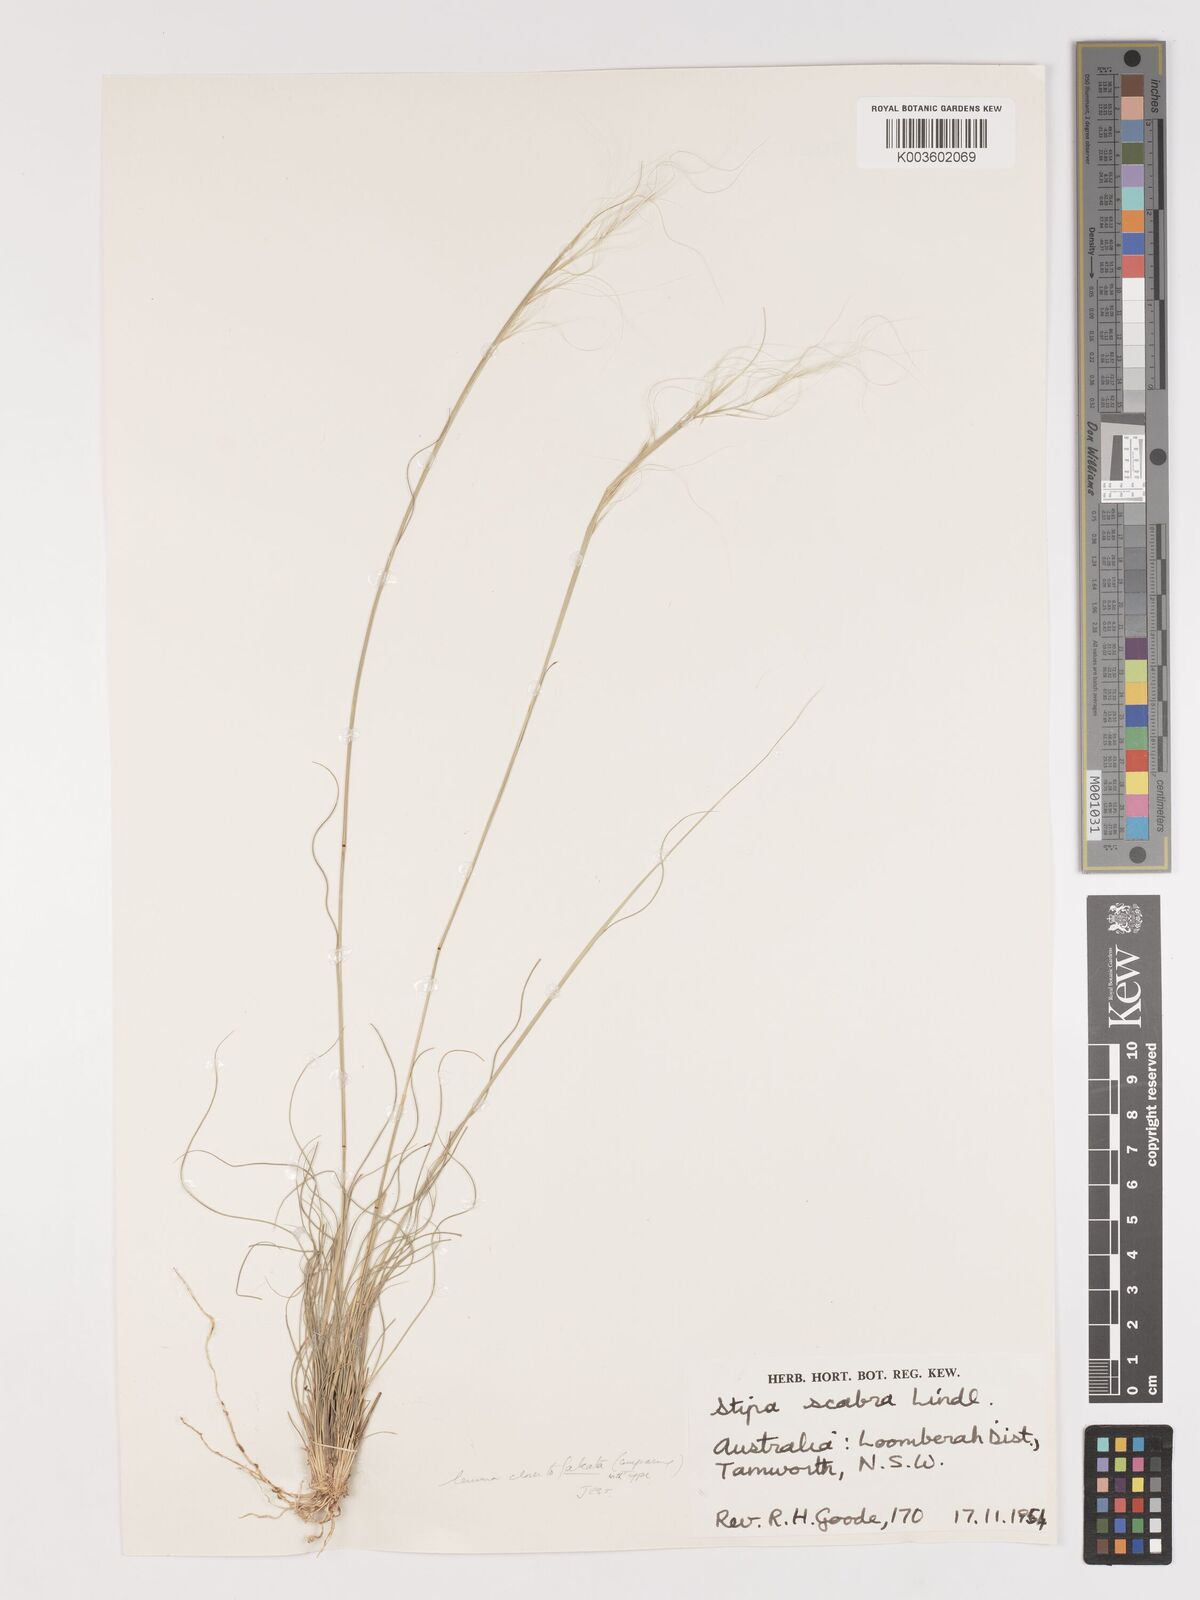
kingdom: Plantae
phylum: Tracheophyta
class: Liliopsida
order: Poales
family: Poaceae
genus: Austrostipa
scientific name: Austrostipa scabra
